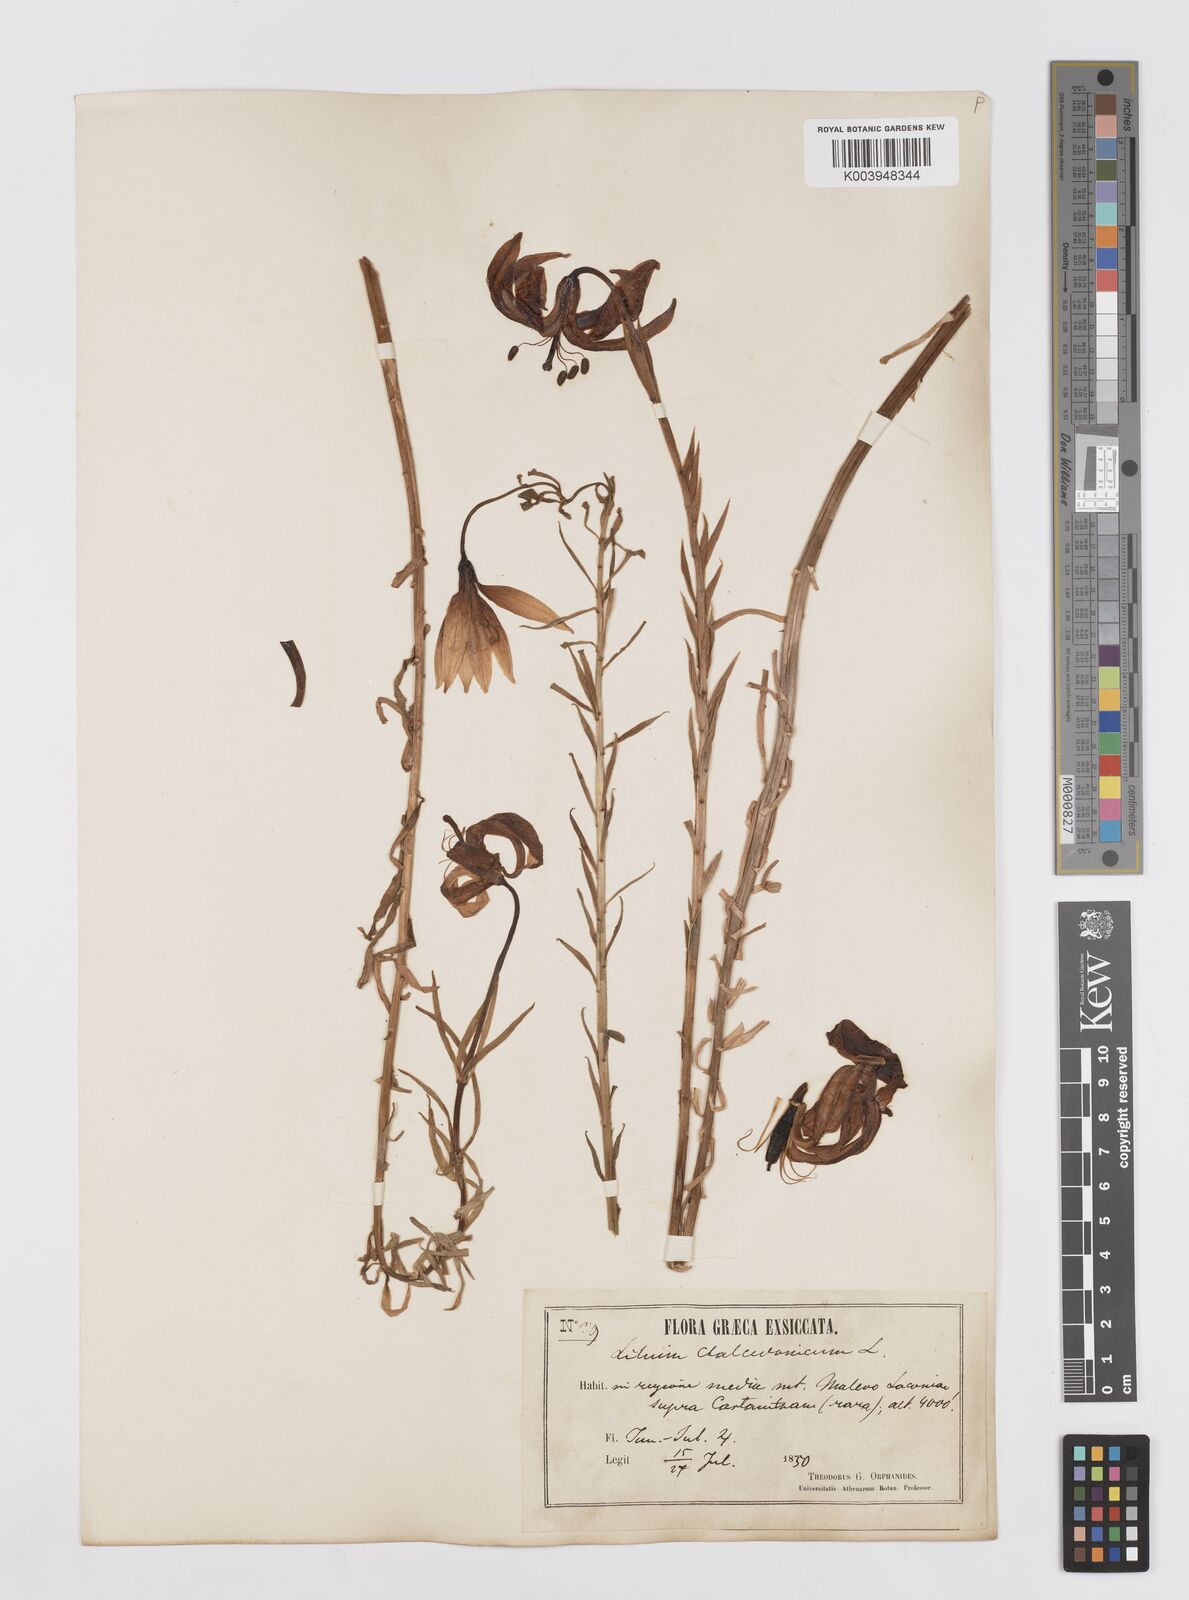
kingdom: Plantae
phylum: Tracheophyta
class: Liliopsida
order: Liliales
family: Liliaceae
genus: Lilium
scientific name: Lilium chalcedonicum
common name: Red martagon of constantinople
